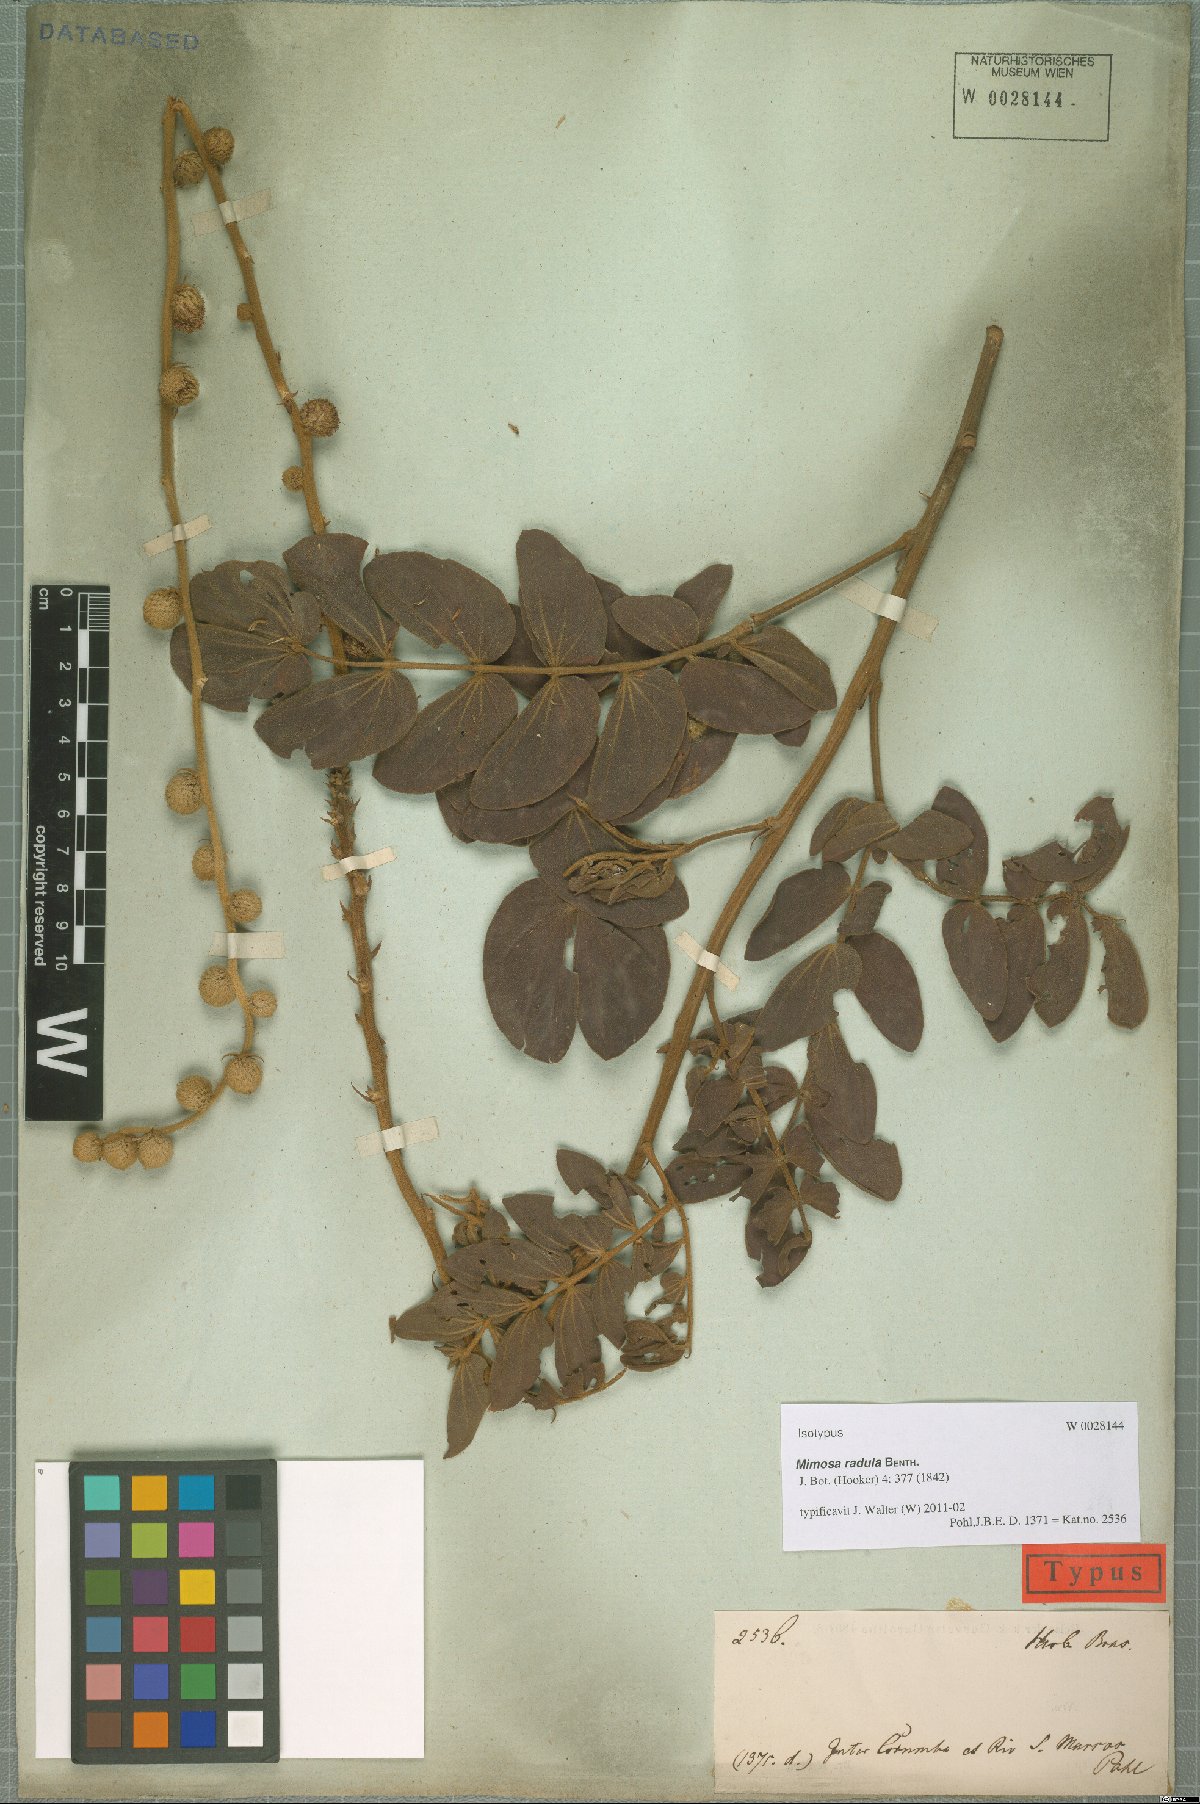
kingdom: Plantae
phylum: Tracheophyta
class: Magnoliopsida
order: Fabales
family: Fabaceae
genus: Mimosa
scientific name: Mimosa radula
